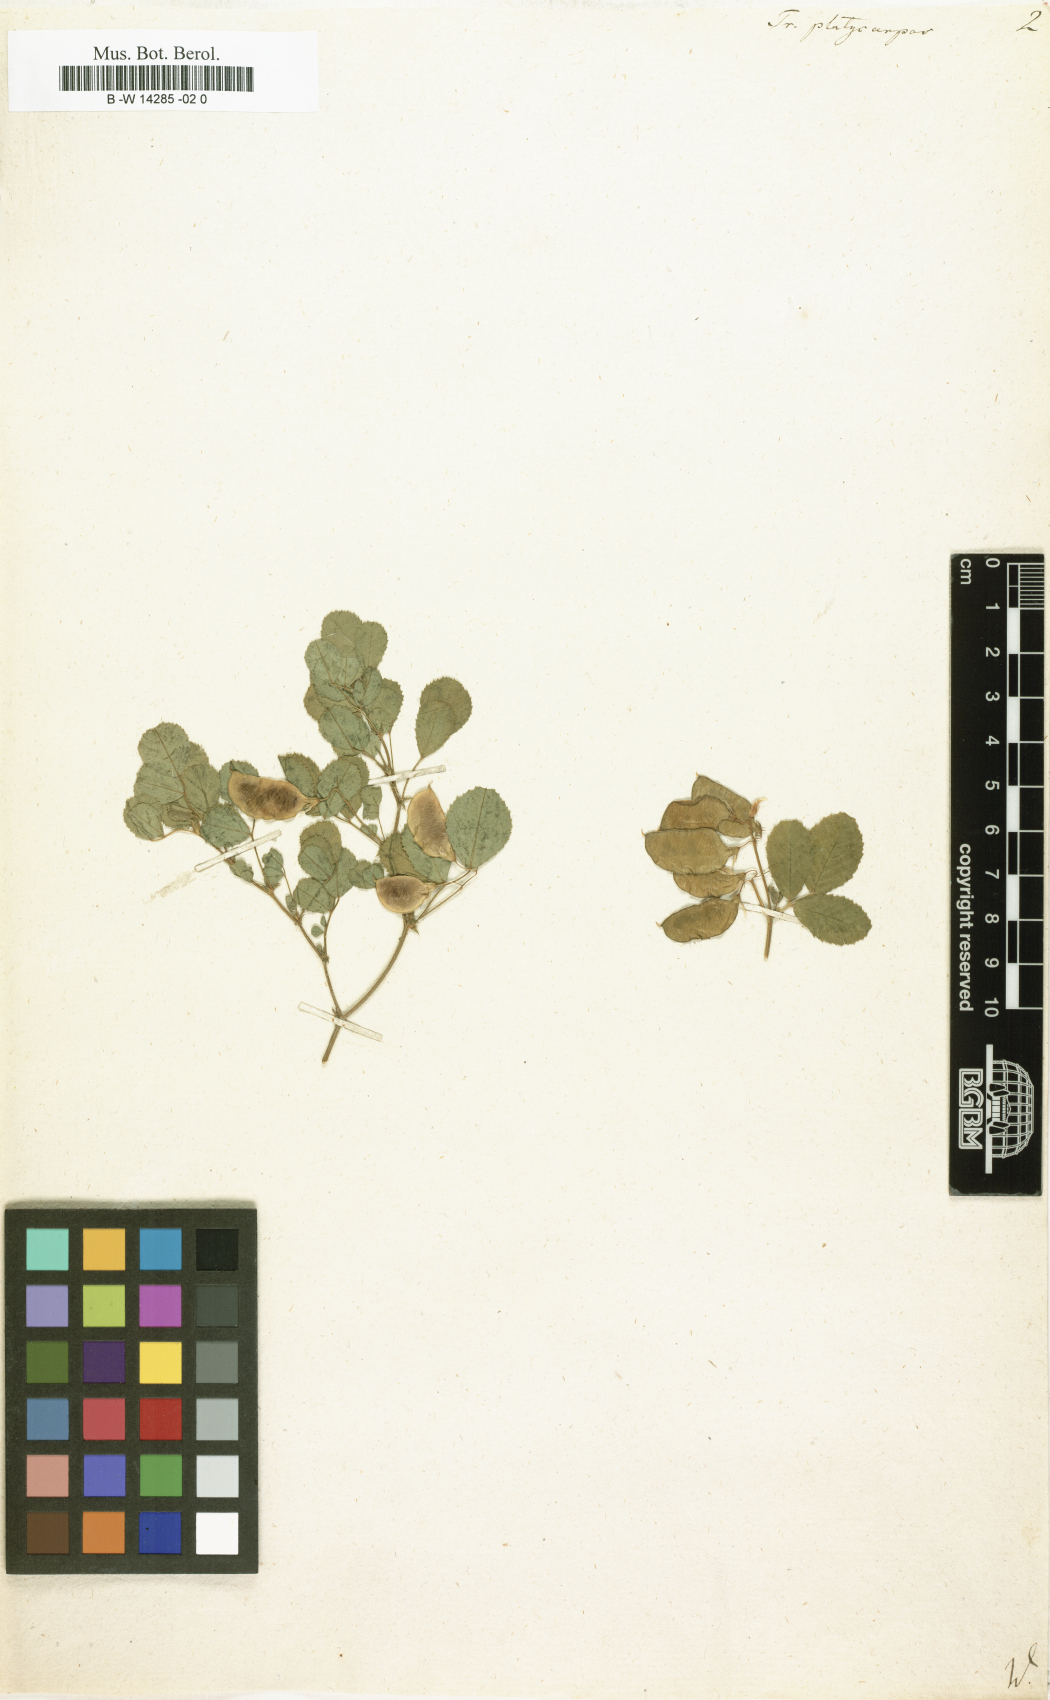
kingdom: Plantae
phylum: Tracheophyta
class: Magnoliopsida
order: Fabales
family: Fabaceae
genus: Medicago
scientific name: Medicago platycarpos
